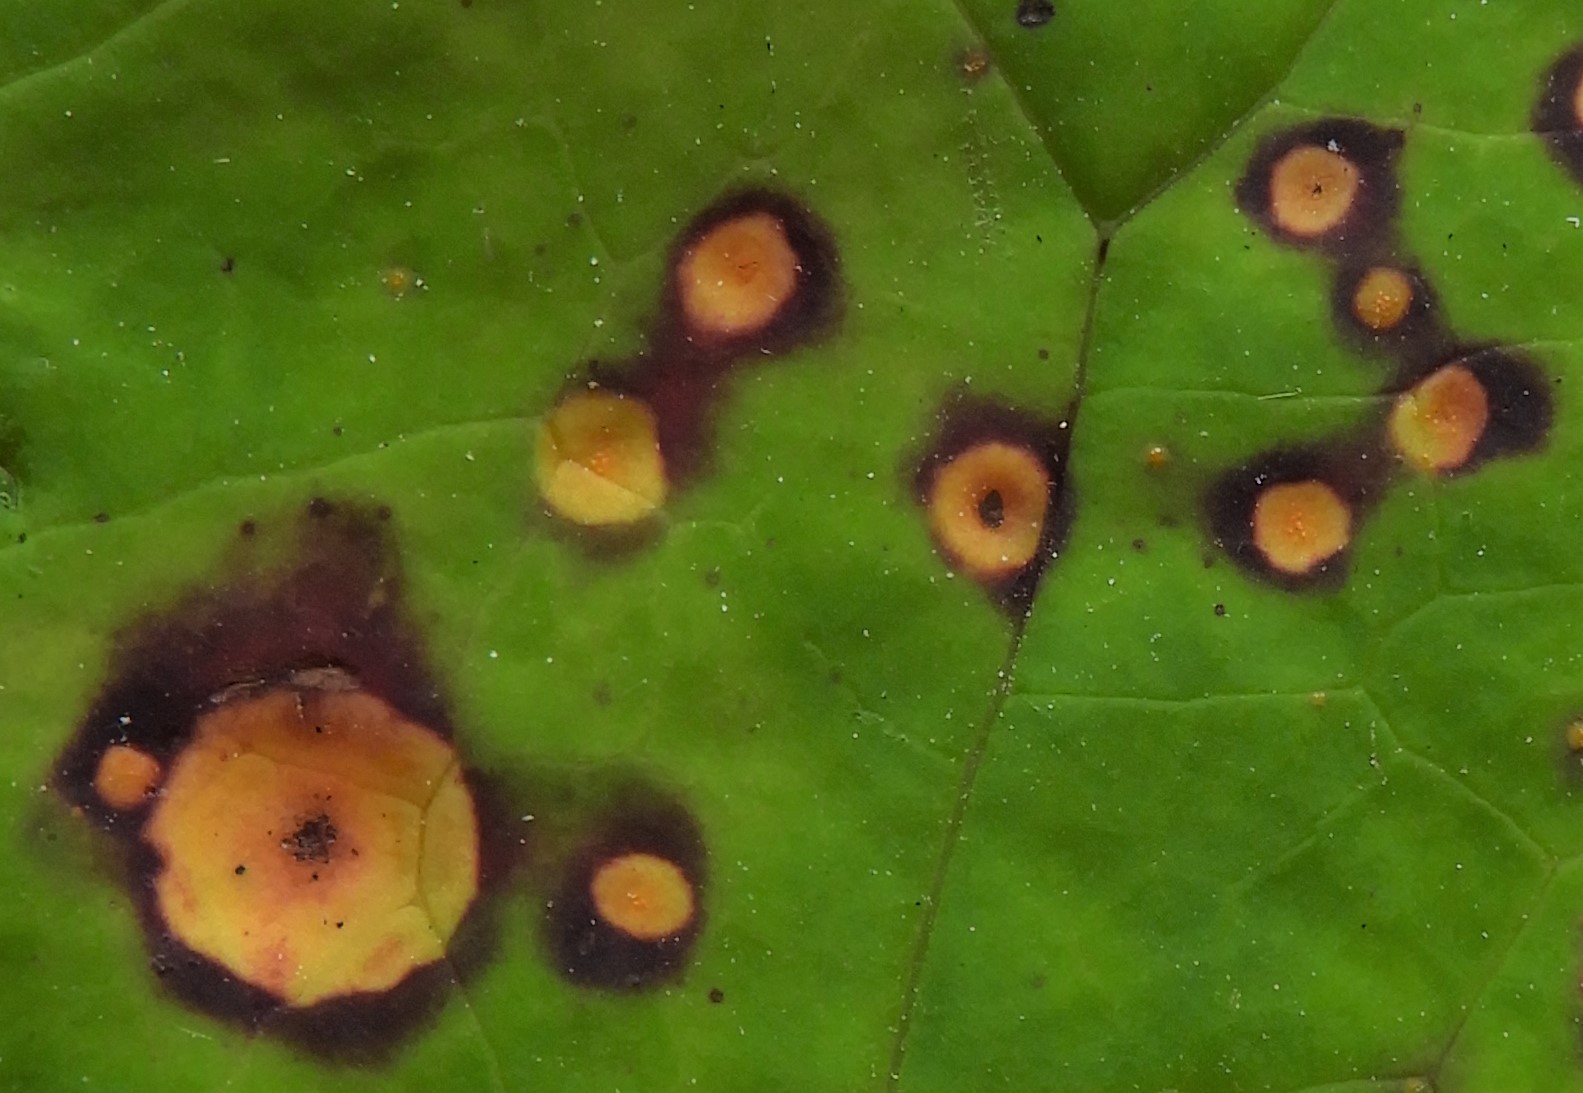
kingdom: Fungi
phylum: Basidiomycota
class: Pucciniomycetes
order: Pucciniales
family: Pucciniaceae
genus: Puccinia
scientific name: Puccinia poarum
